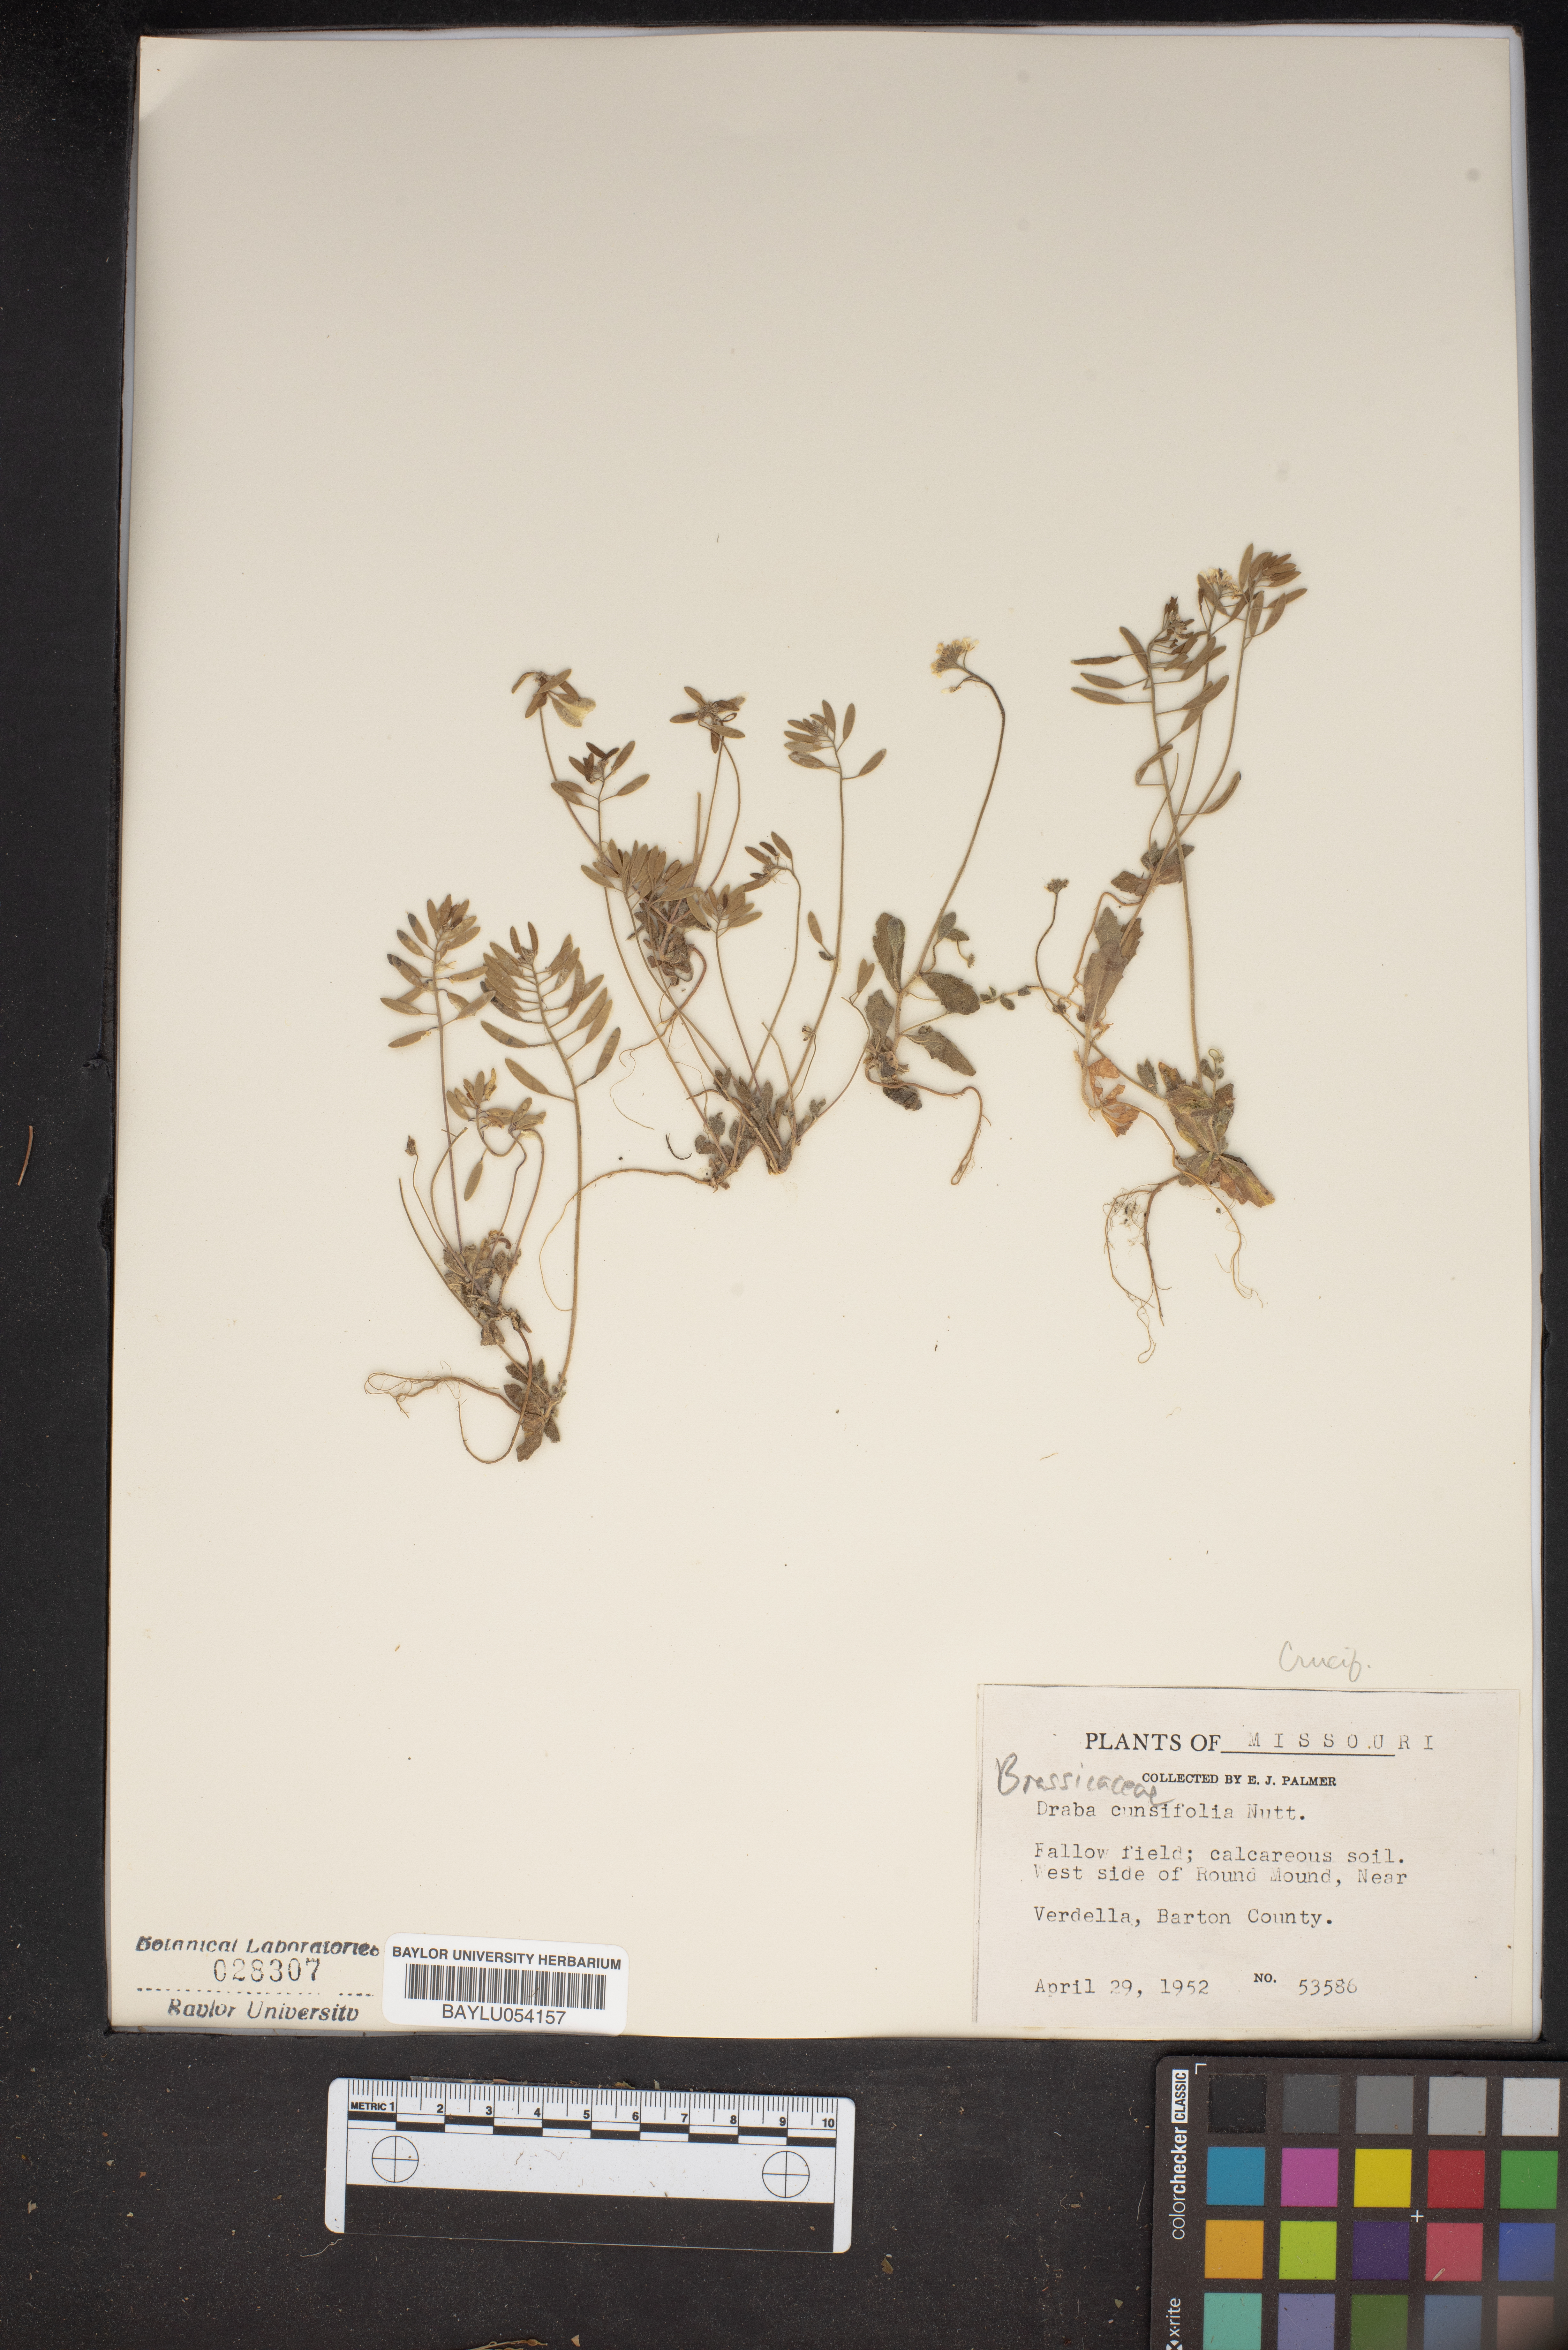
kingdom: Plantae
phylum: Tracheophyta
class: Magnoliopsida
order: Brassicales
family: Brassicaceae
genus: Tomostima
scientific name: Tomostima cuneifolia
